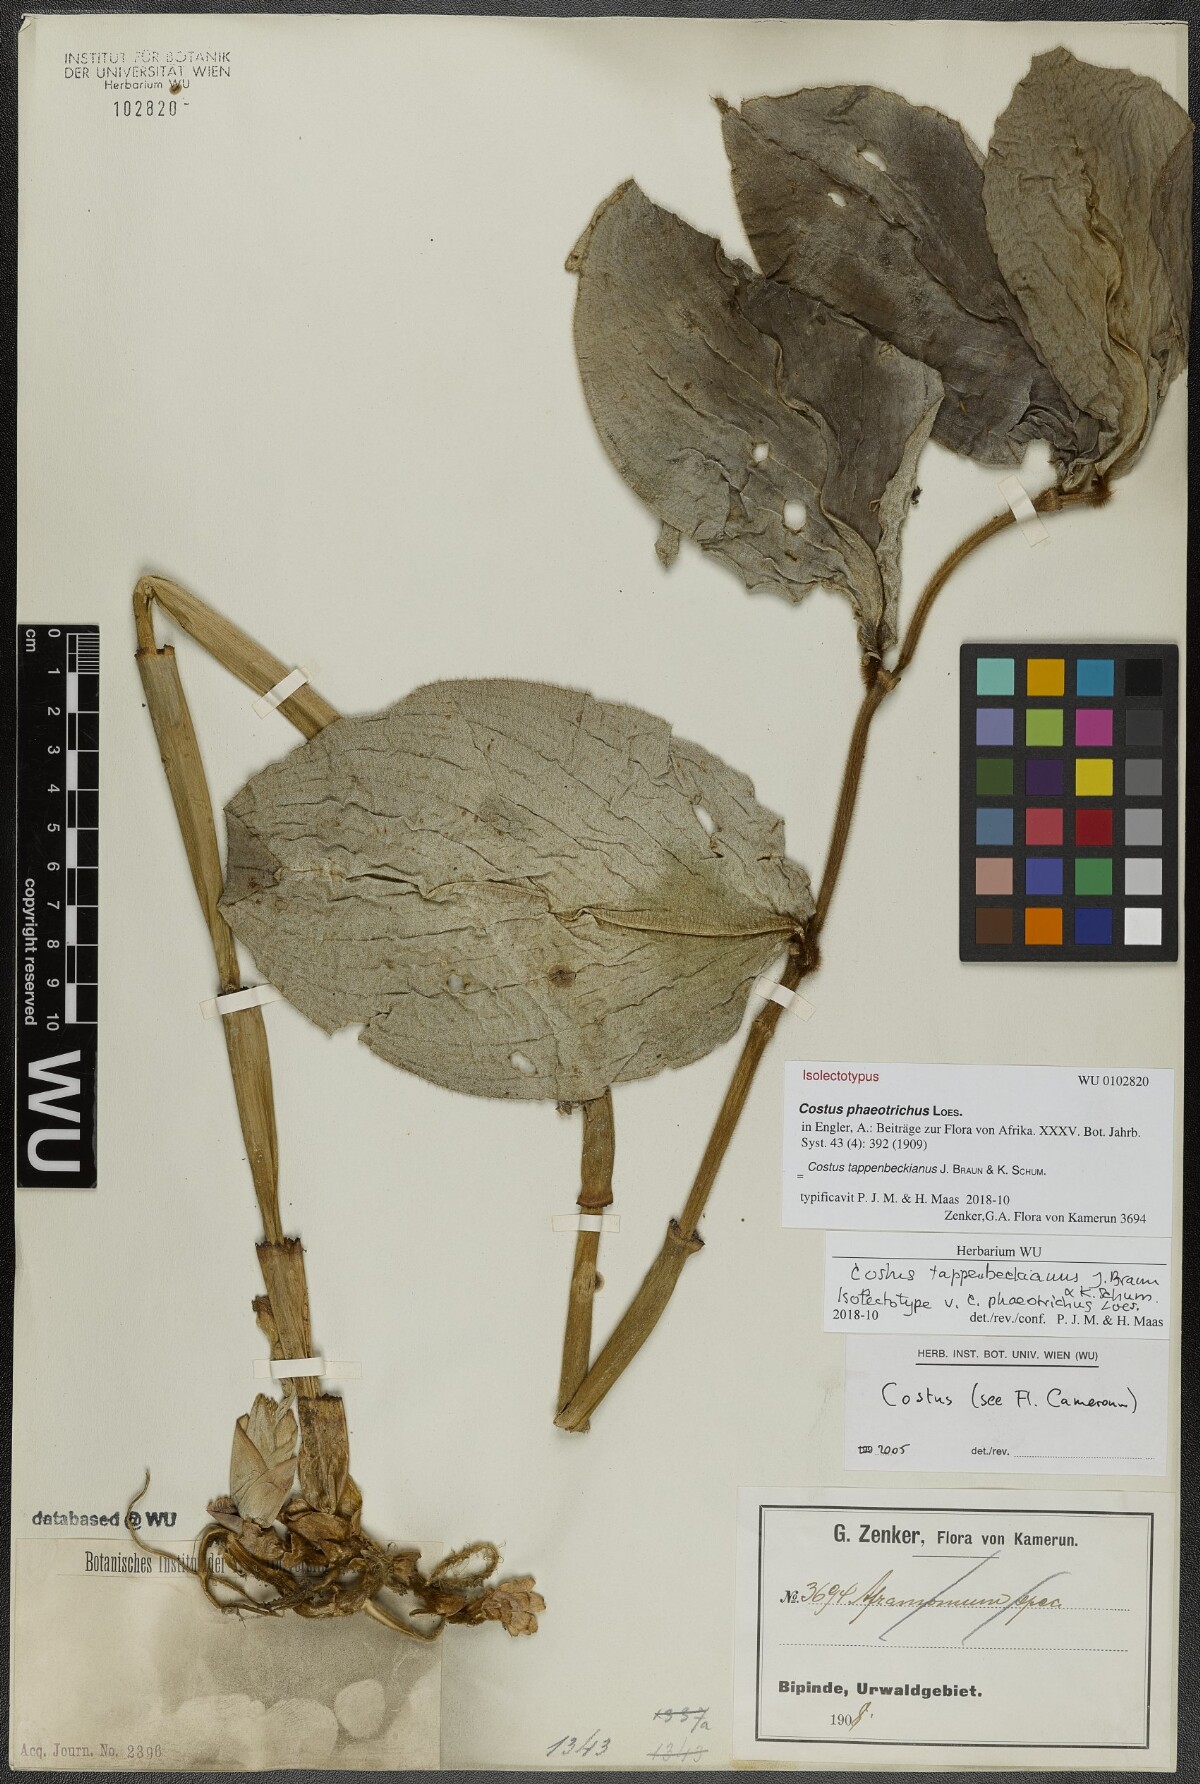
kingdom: Plantae
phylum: Tracheophyta
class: Liliopsida
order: Zingiberales
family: Costaceae
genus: Costus
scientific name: Costus tappenbeckianus
